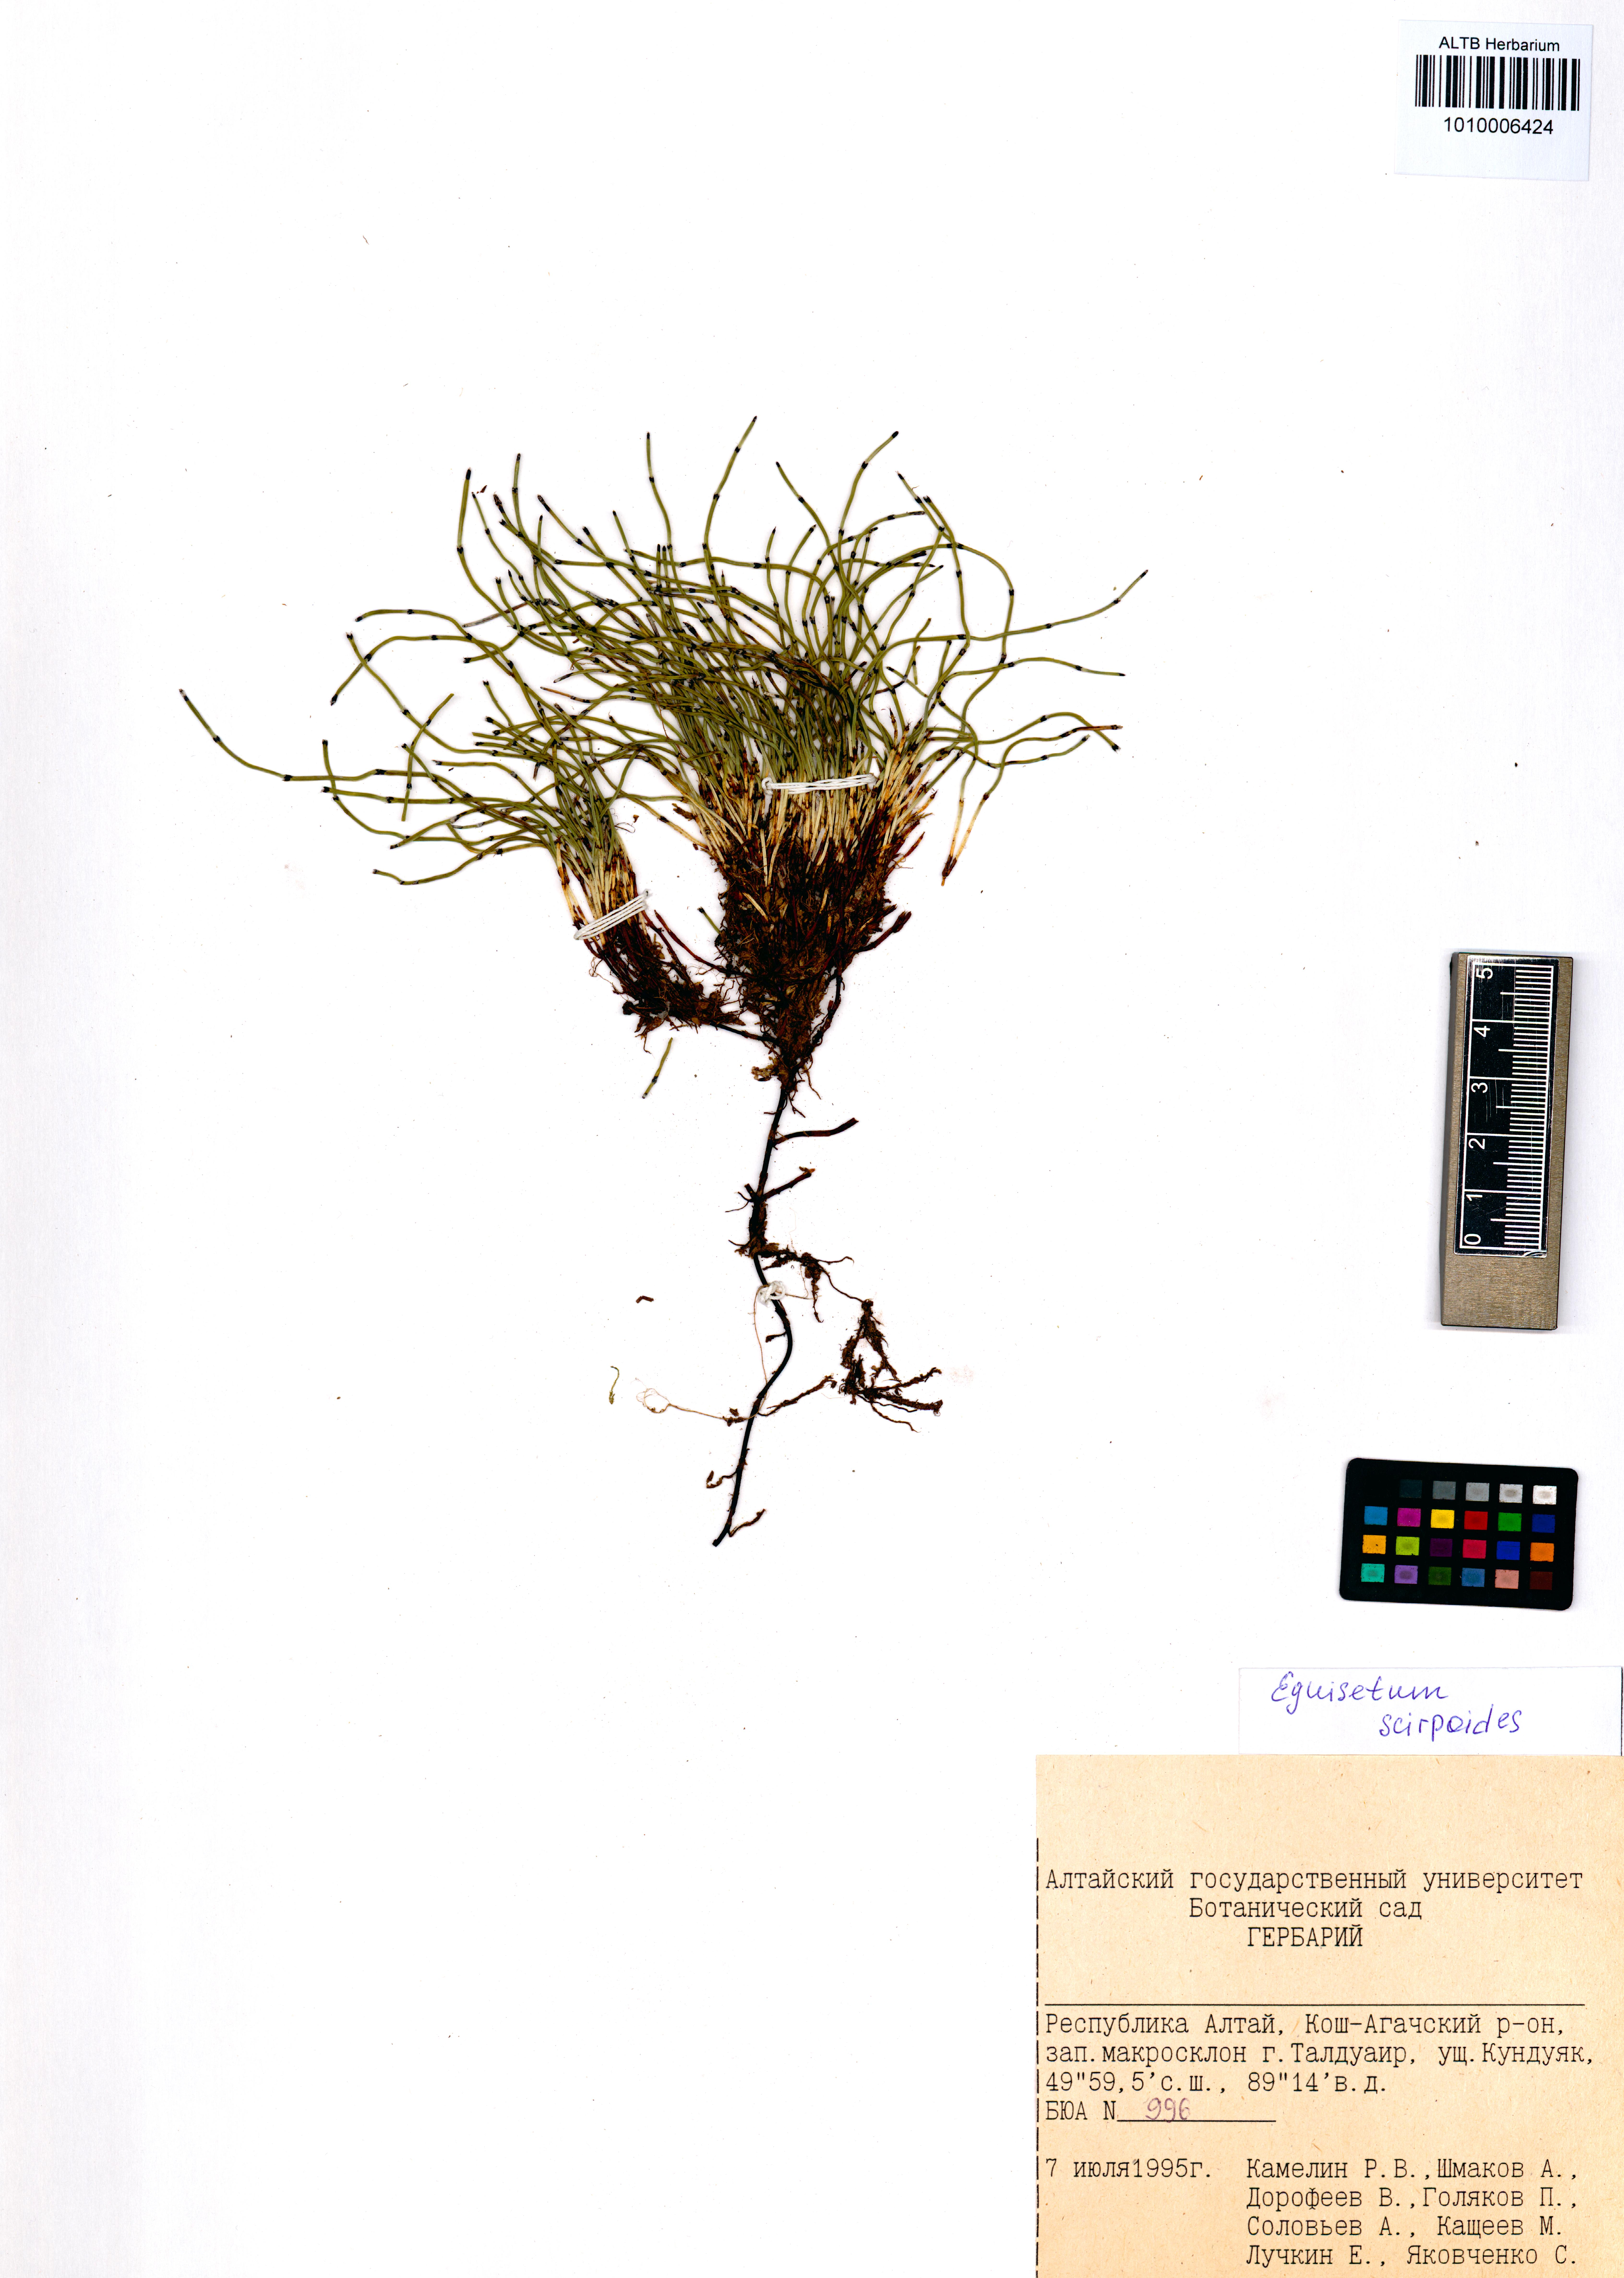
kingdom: Plantae
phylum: Tracheophyta
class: Polypodiopsida
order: Equisetales
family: Equisetaceae
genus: Equisetum
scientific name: Equisetum scirpoides
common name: Delicate horsetail
